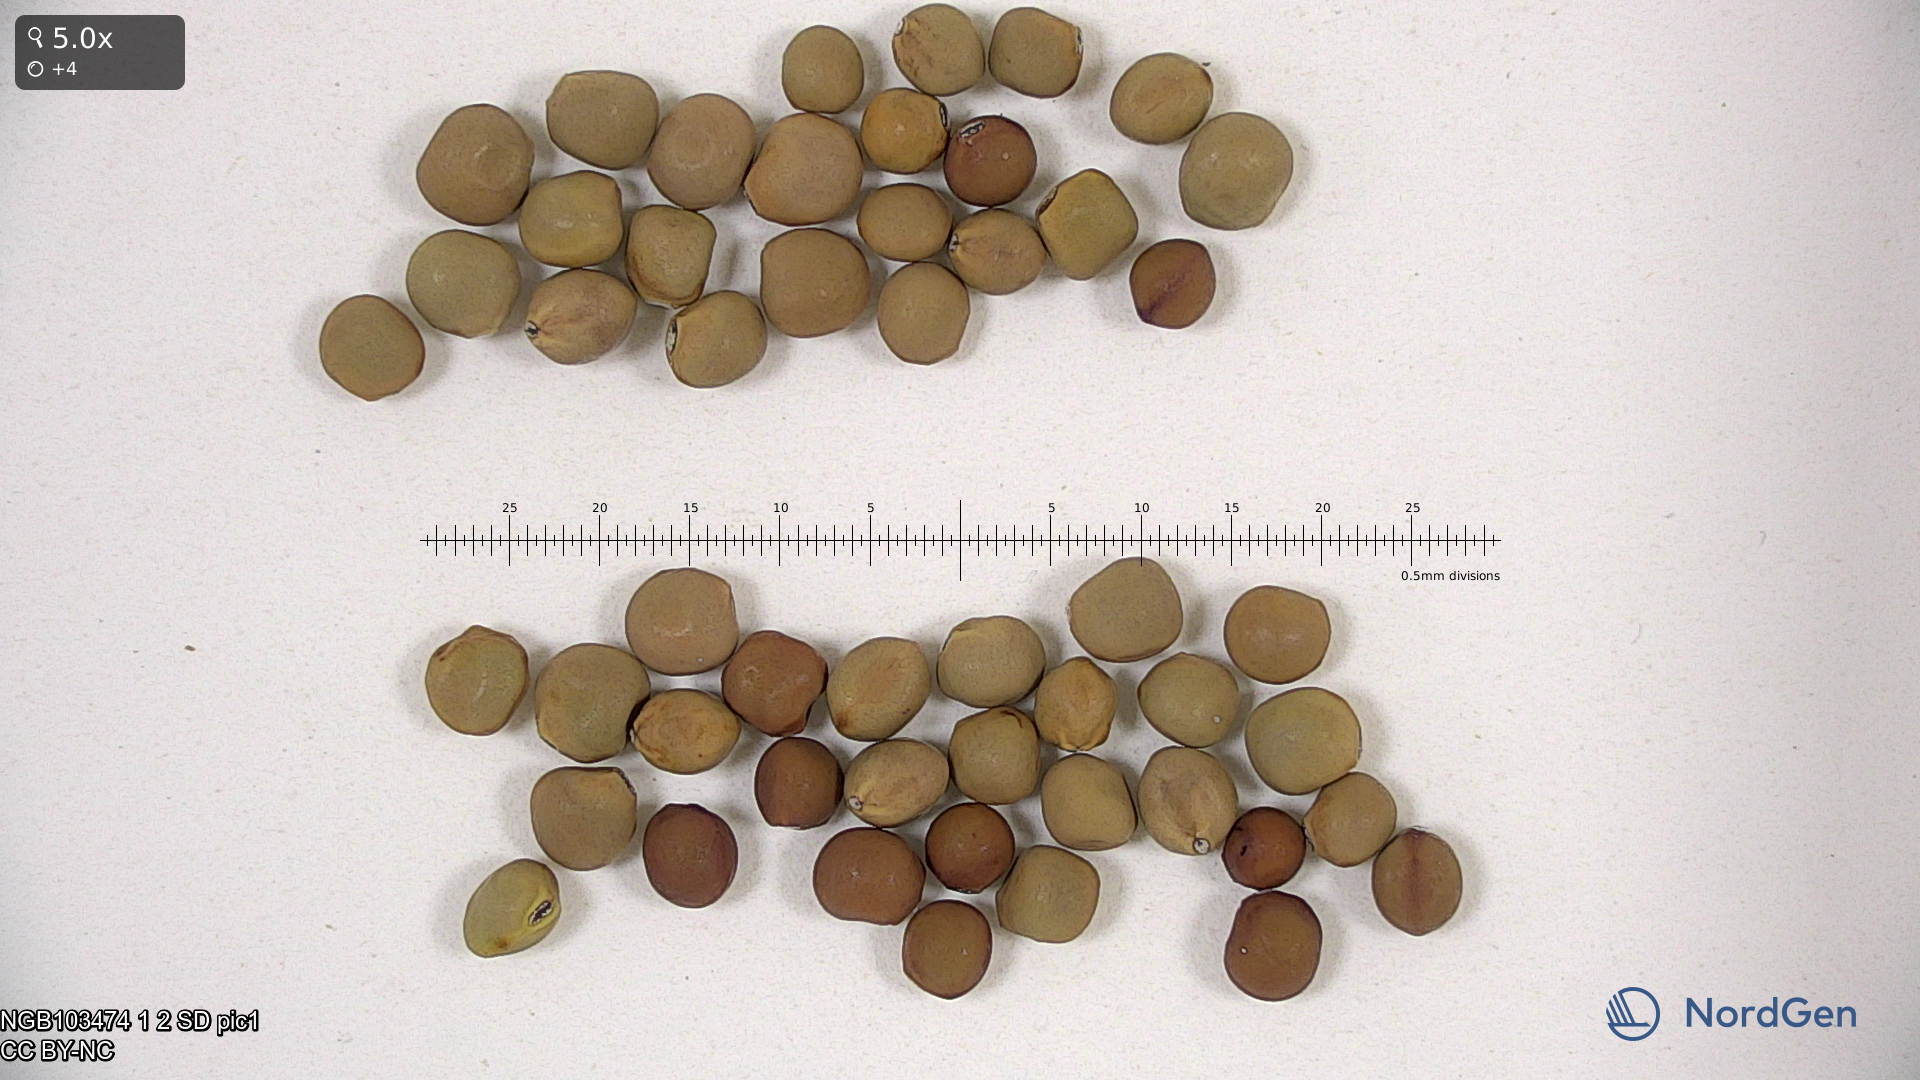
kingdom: Plantae
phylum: Tracheophyta
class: Magnoliopsida
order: Fabales
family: Fabaceae
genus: Lathyrus
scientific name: Lathyrus oleraceus
